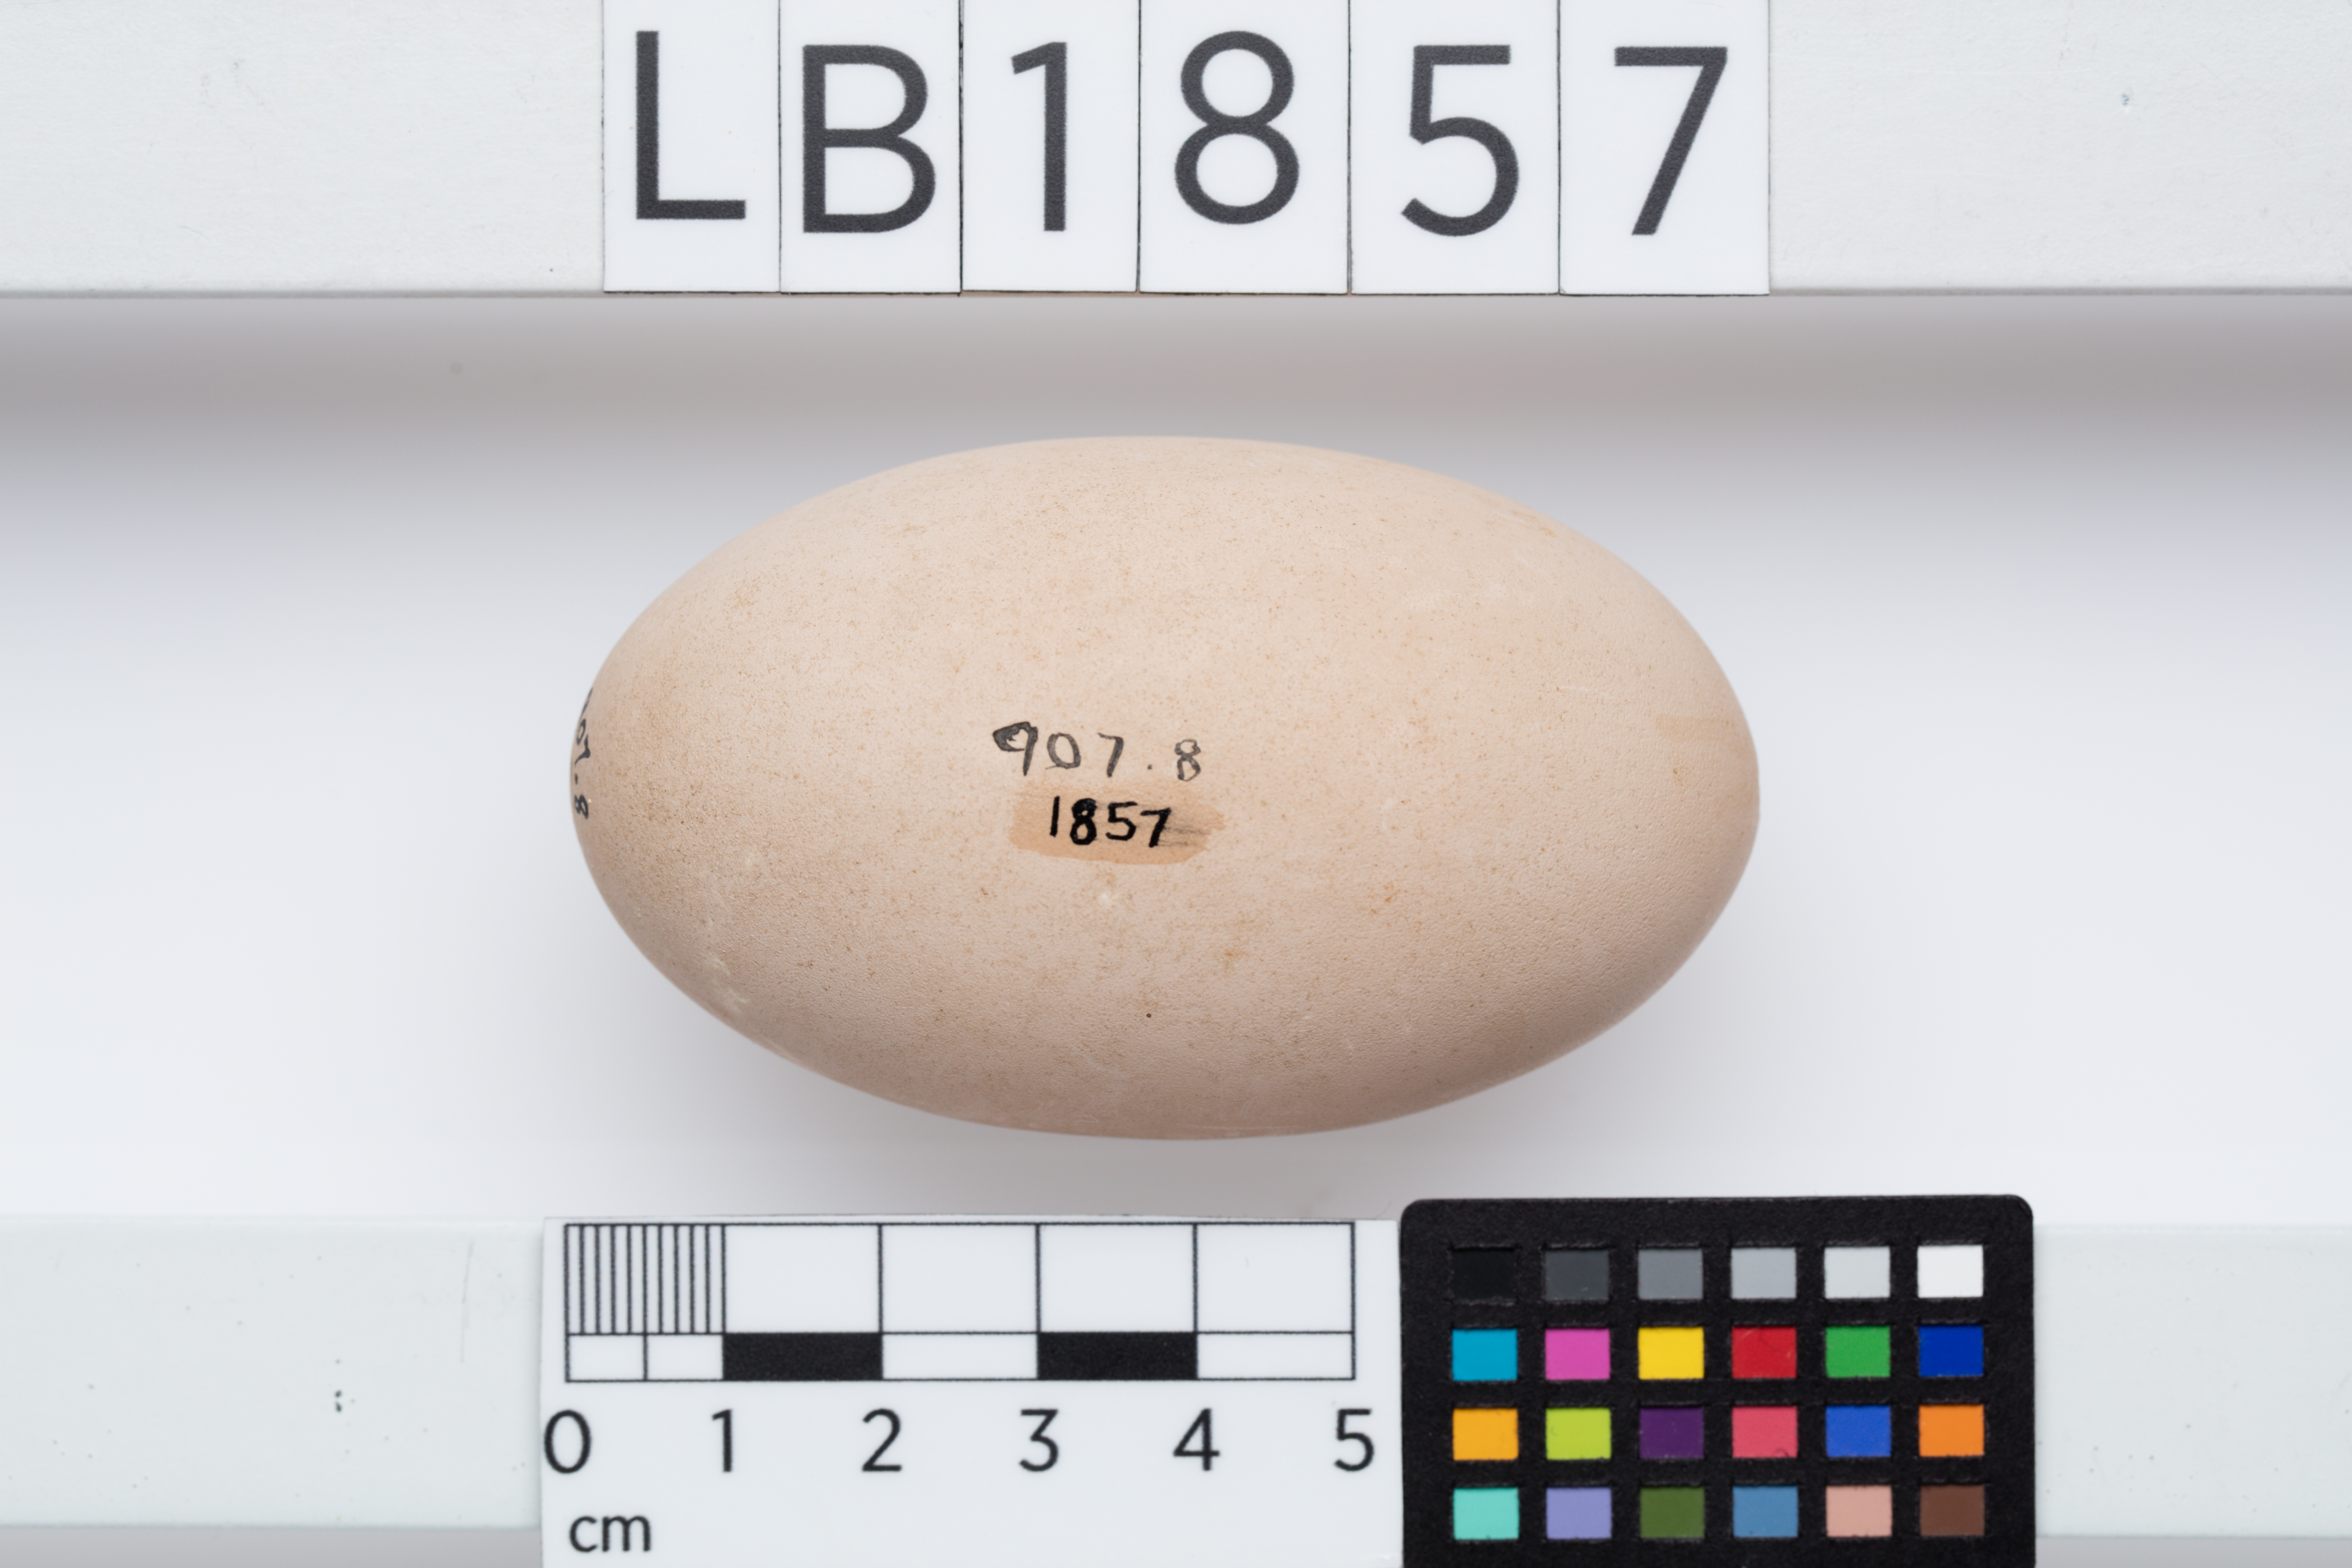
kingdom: Animalia
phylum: Chordata
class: Aves
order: Galliformes
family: Megapodiidae
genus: Megapodius
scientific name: Megapodius pritchardii
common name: Tongan megapode
